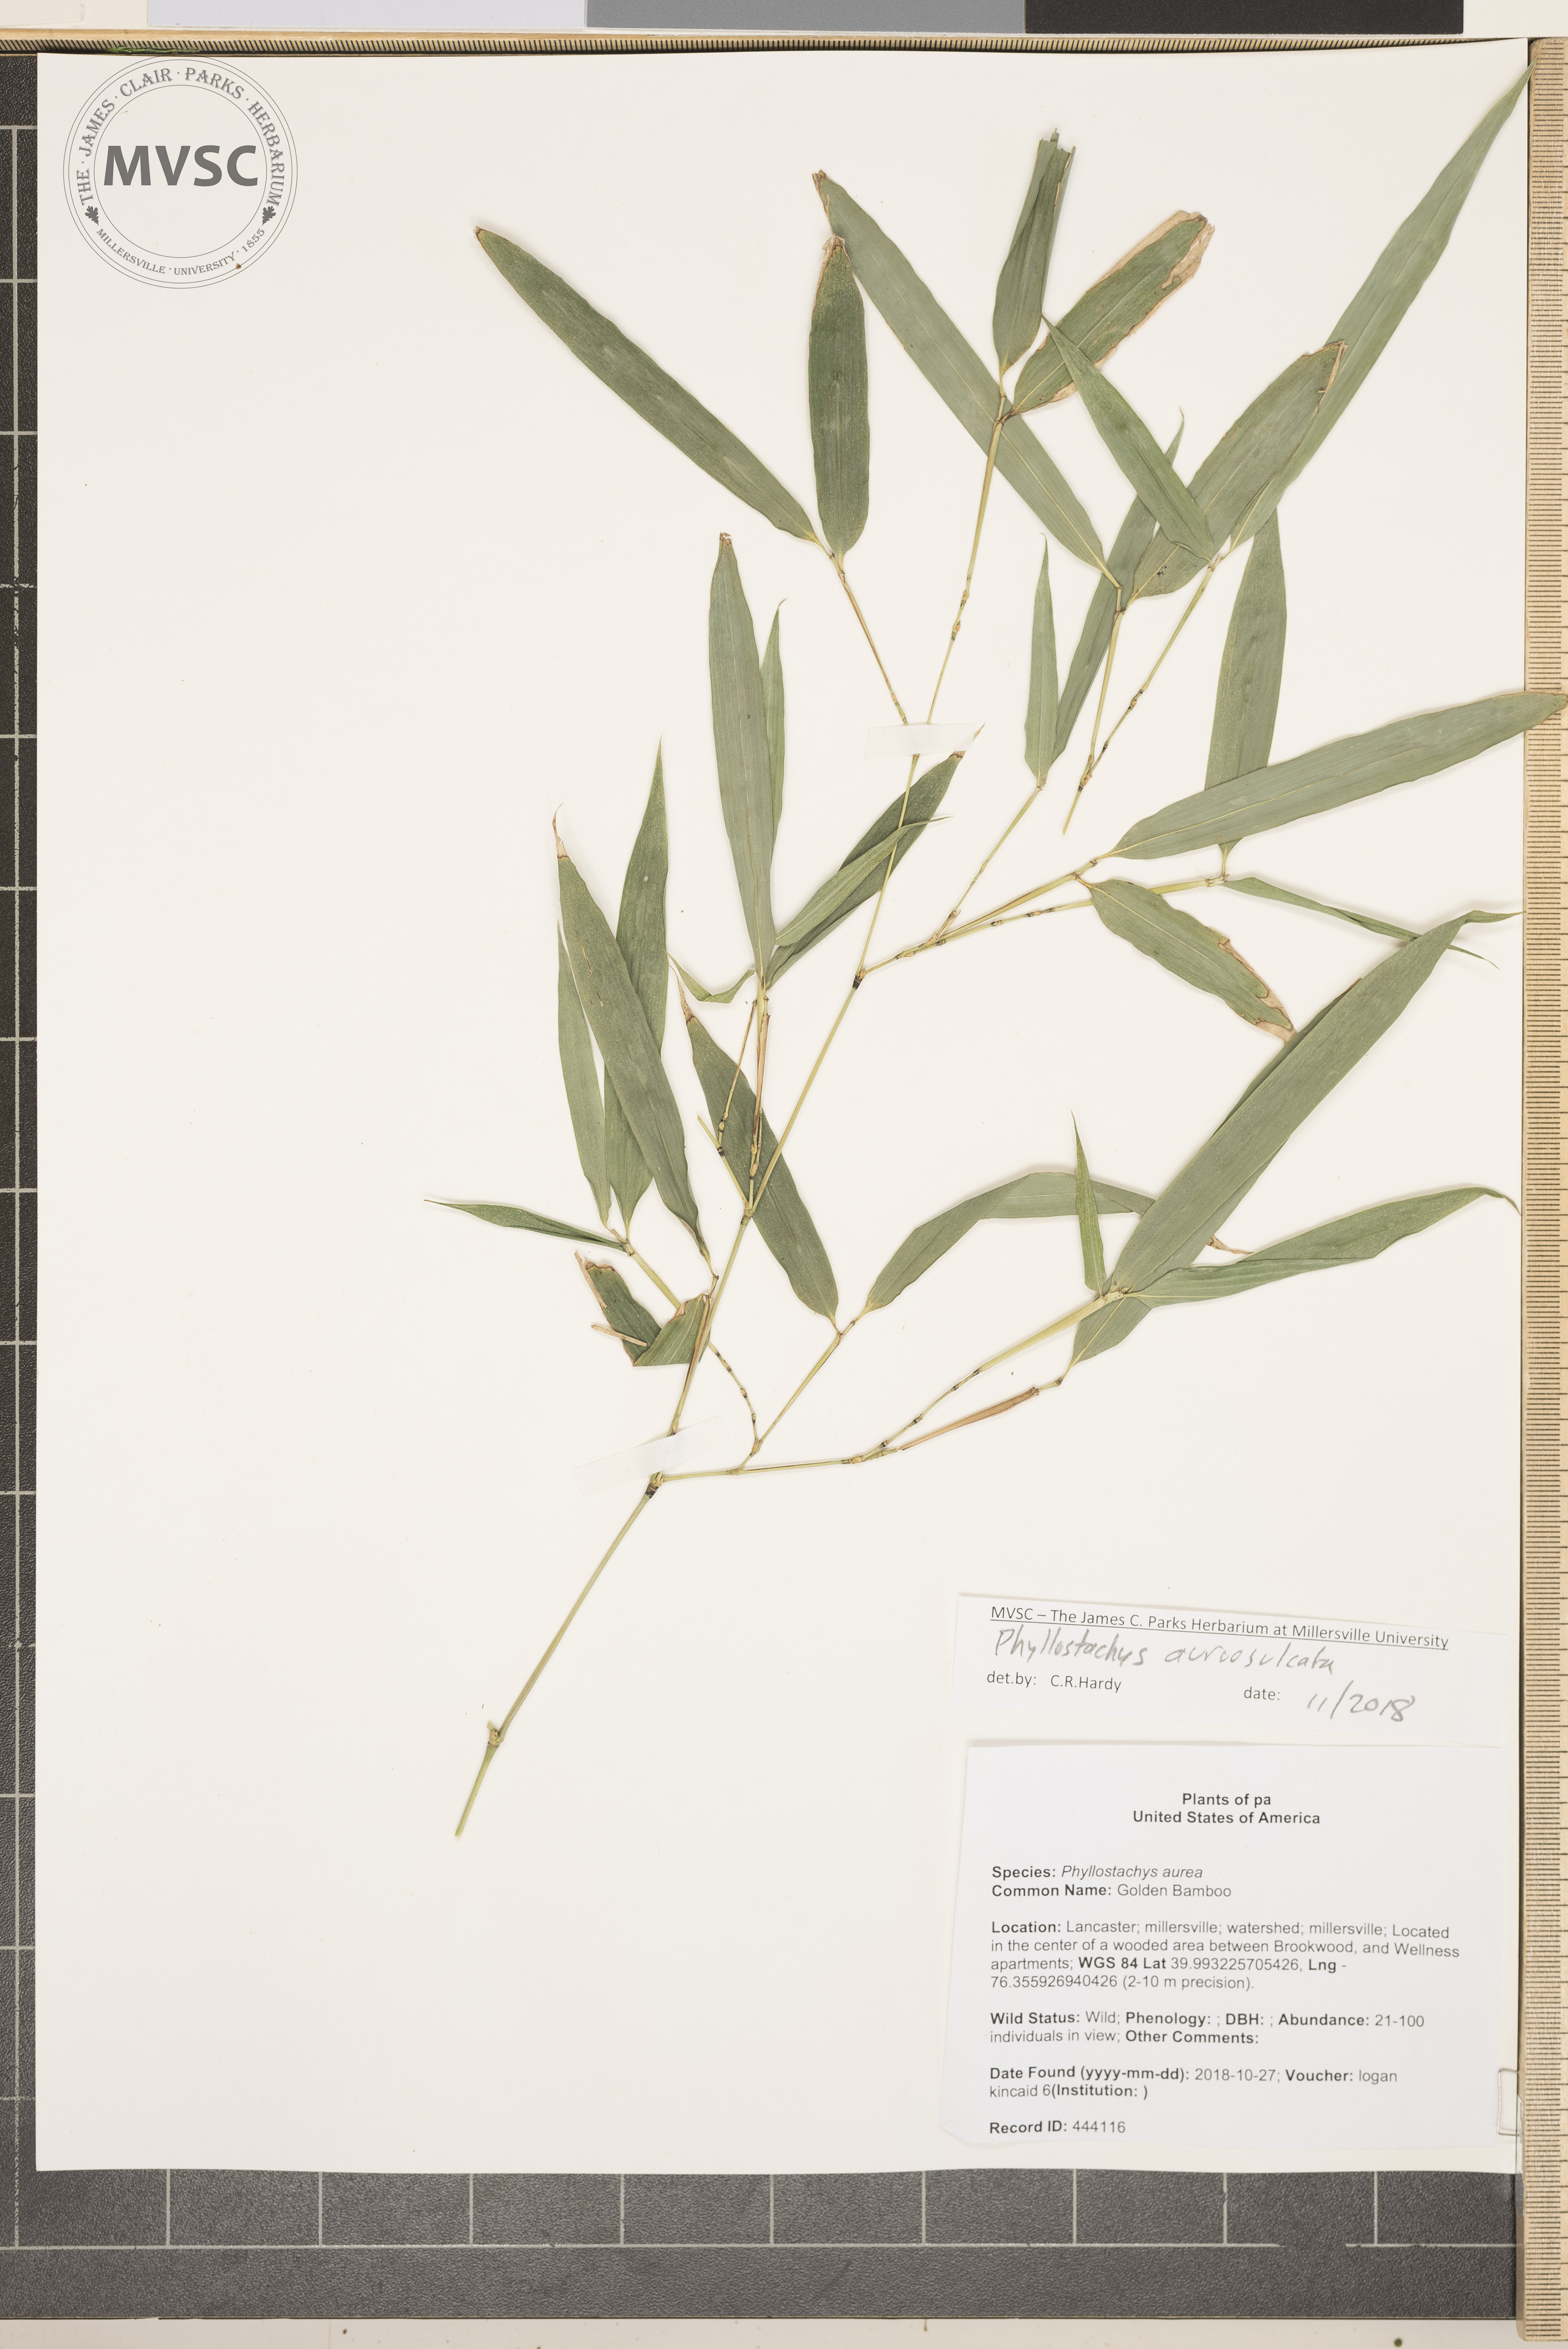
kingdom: Plantae
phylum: Tracheophyta
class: Liliopsida
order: Poales
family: Poaceae
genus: Phyllostachys
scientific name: Phyllostachys aureosulcata
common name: Bamboo
